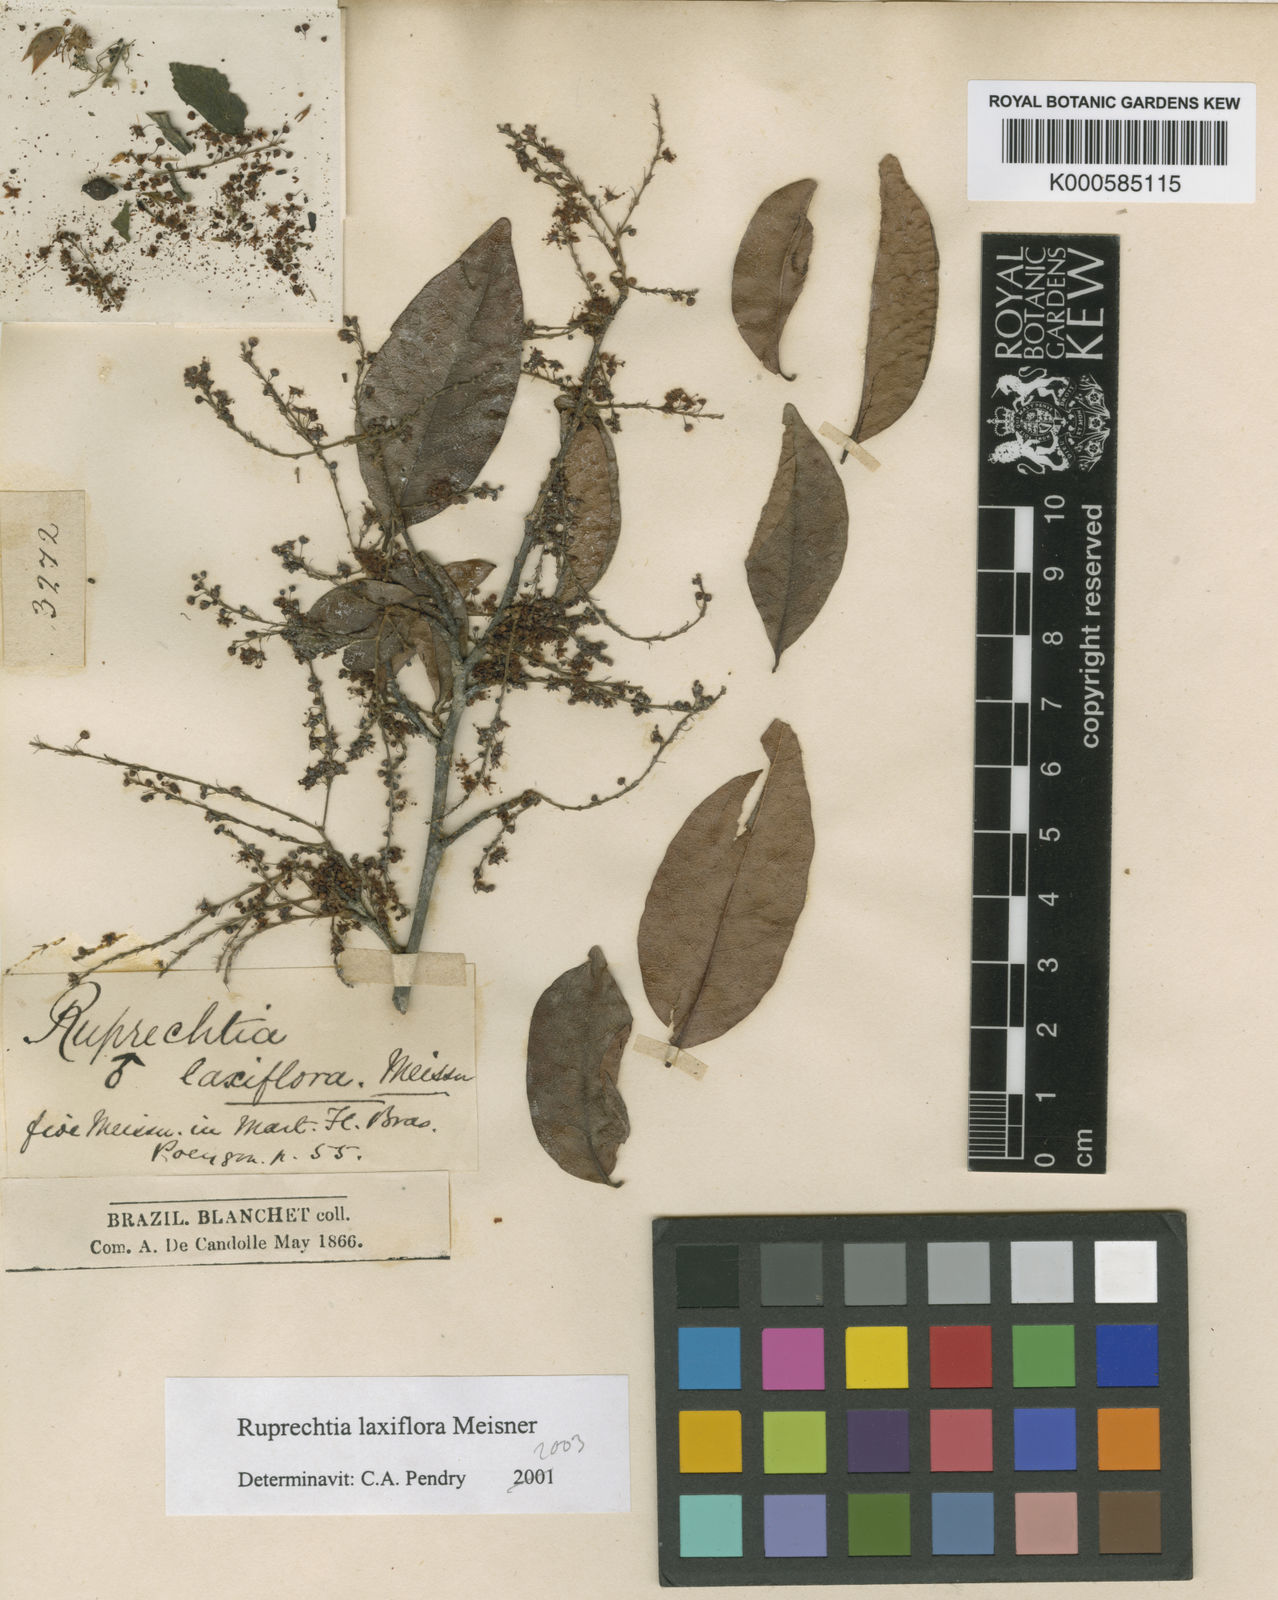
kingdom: Plantae
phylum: Tracheophyta
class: Magnoliopsida
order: Caryophyllales
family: Polygonaceae
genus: Ruprechtia
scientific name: Ruprechtia laxiflora
